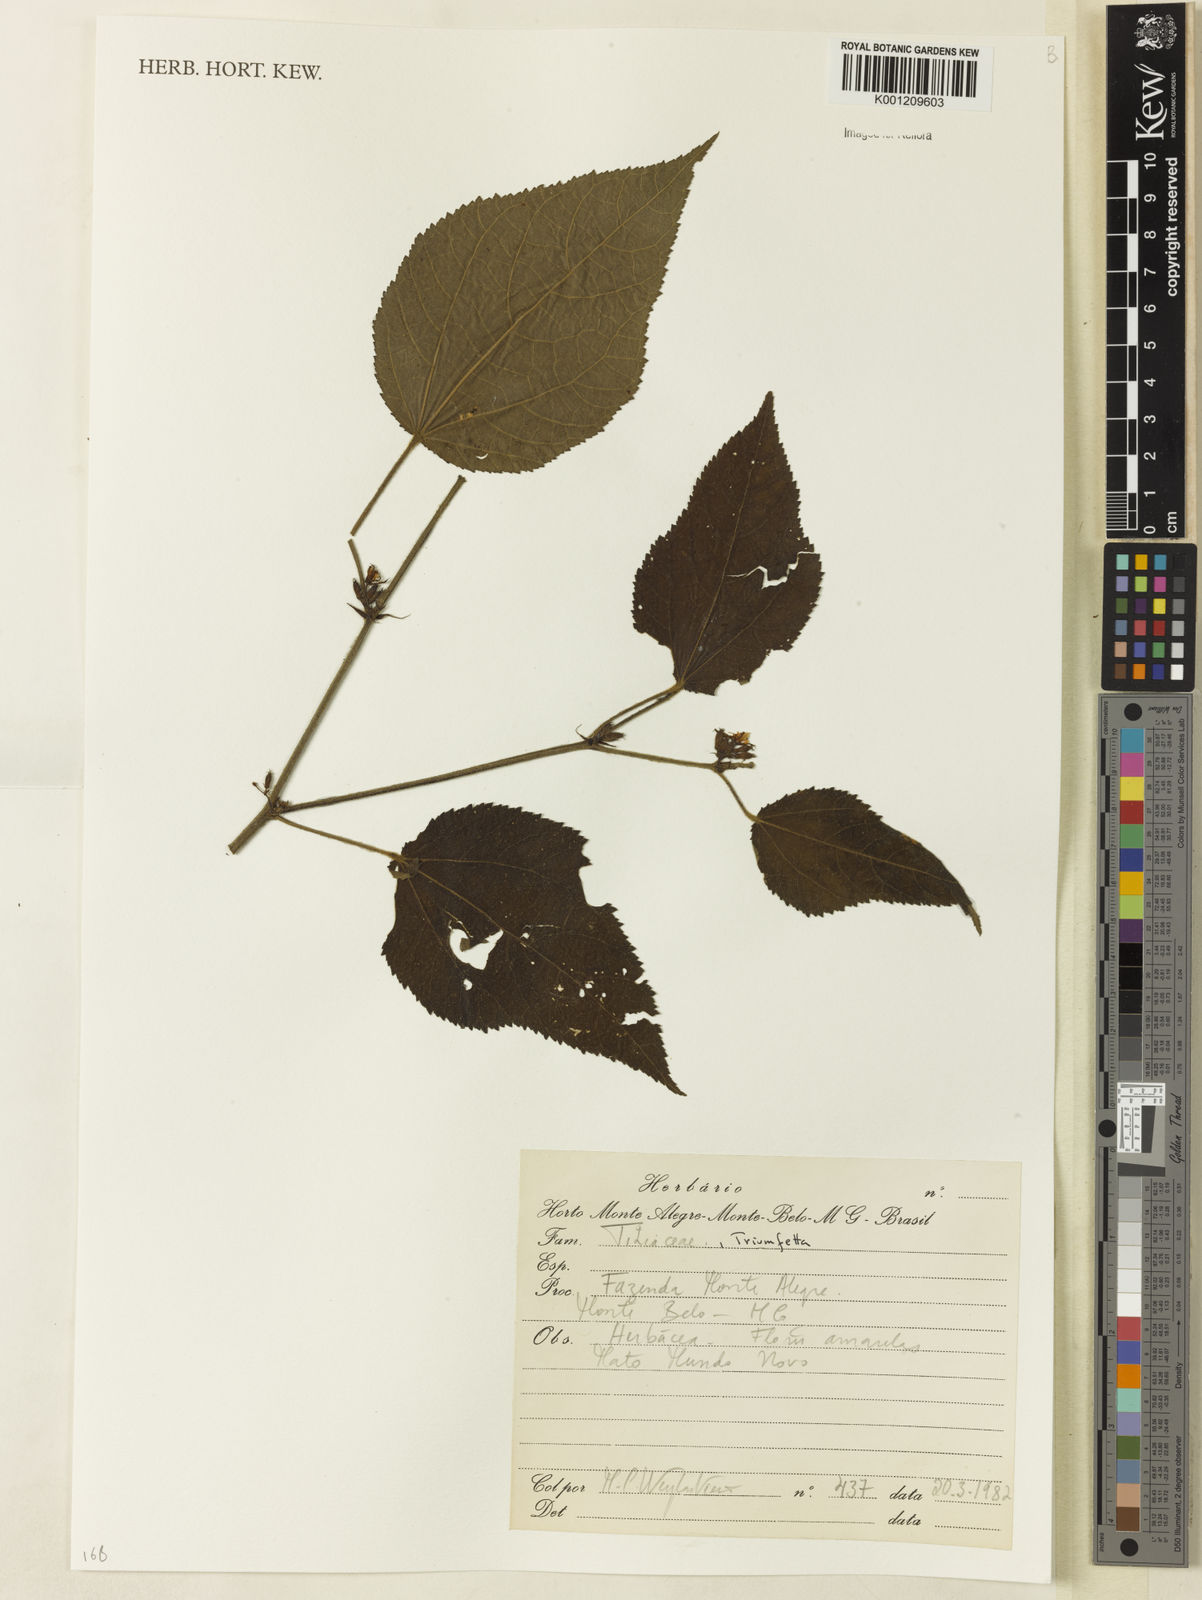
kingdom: Plantae
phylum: Tracheophyta
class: Magnoliopsida
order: Malvales
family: Malvaceae
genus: Triumfetta
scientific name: Triumfetta
